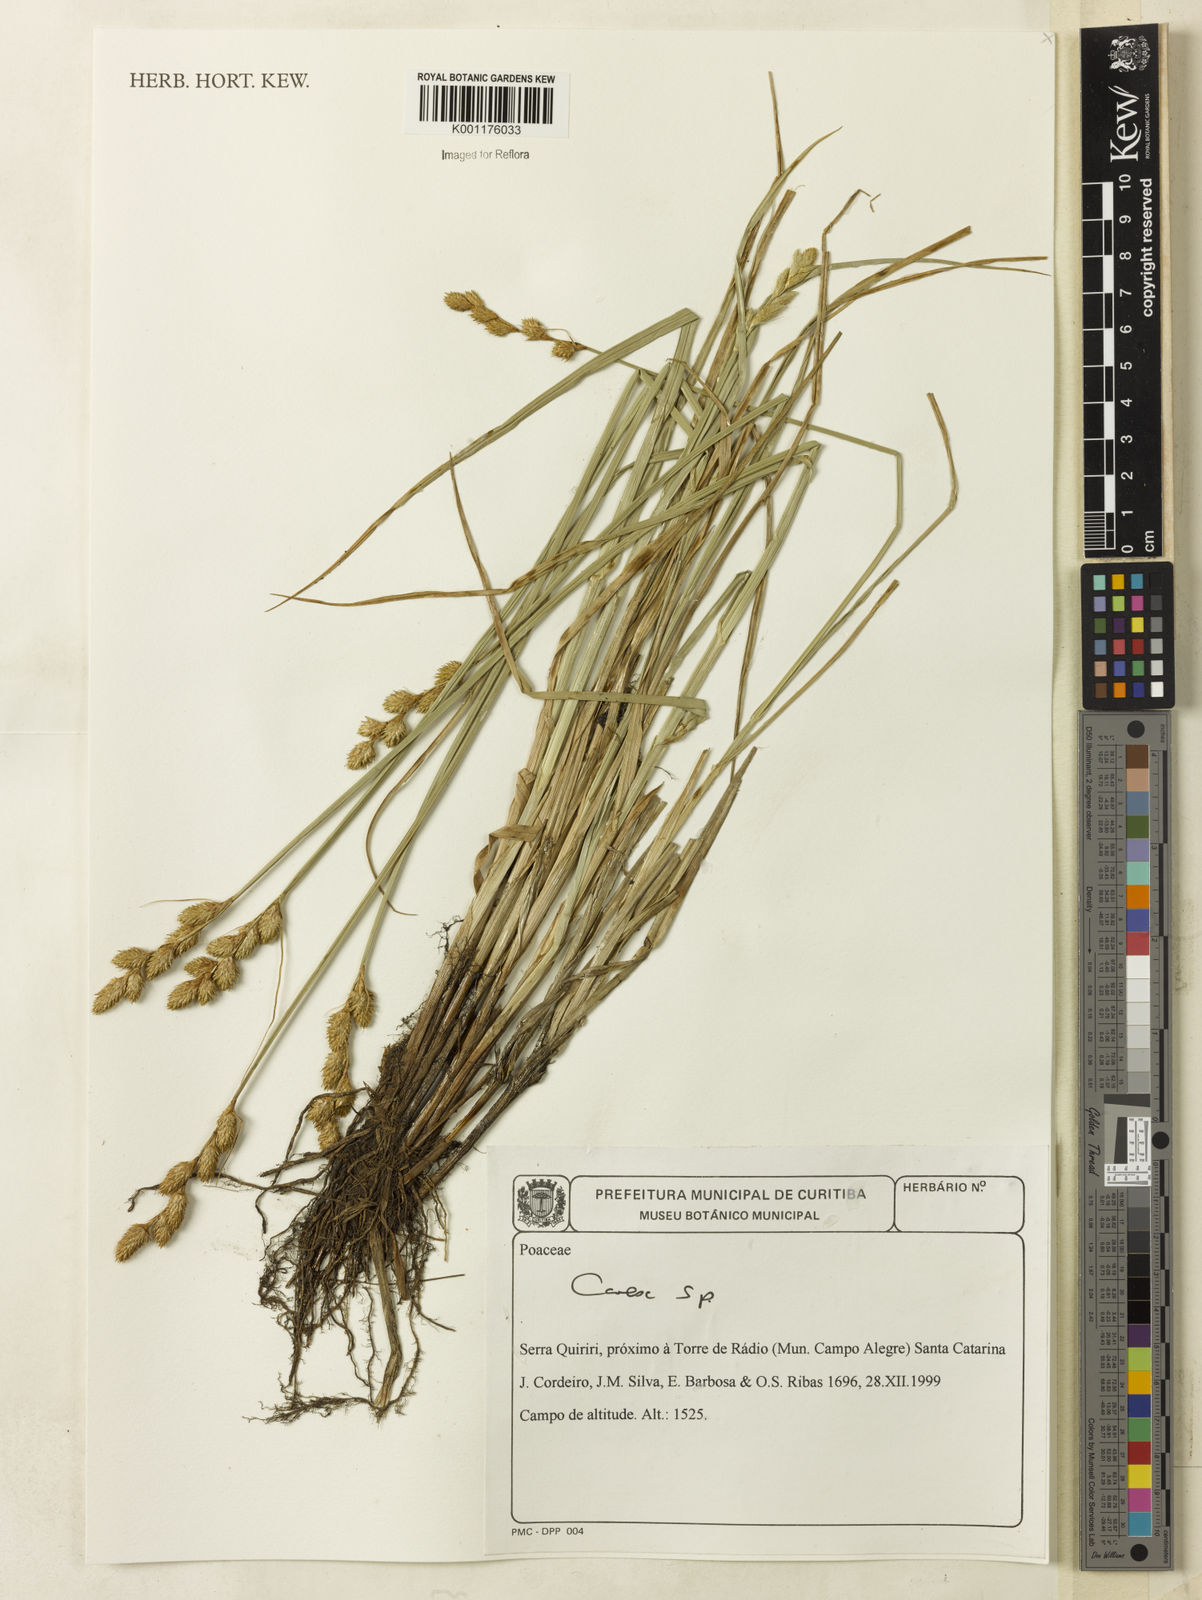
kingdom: Plantae
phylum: Tracheophyta
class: Liliopsida
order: Poales
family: Cyperaceae
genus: Carex
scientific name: Carex meridionalis
